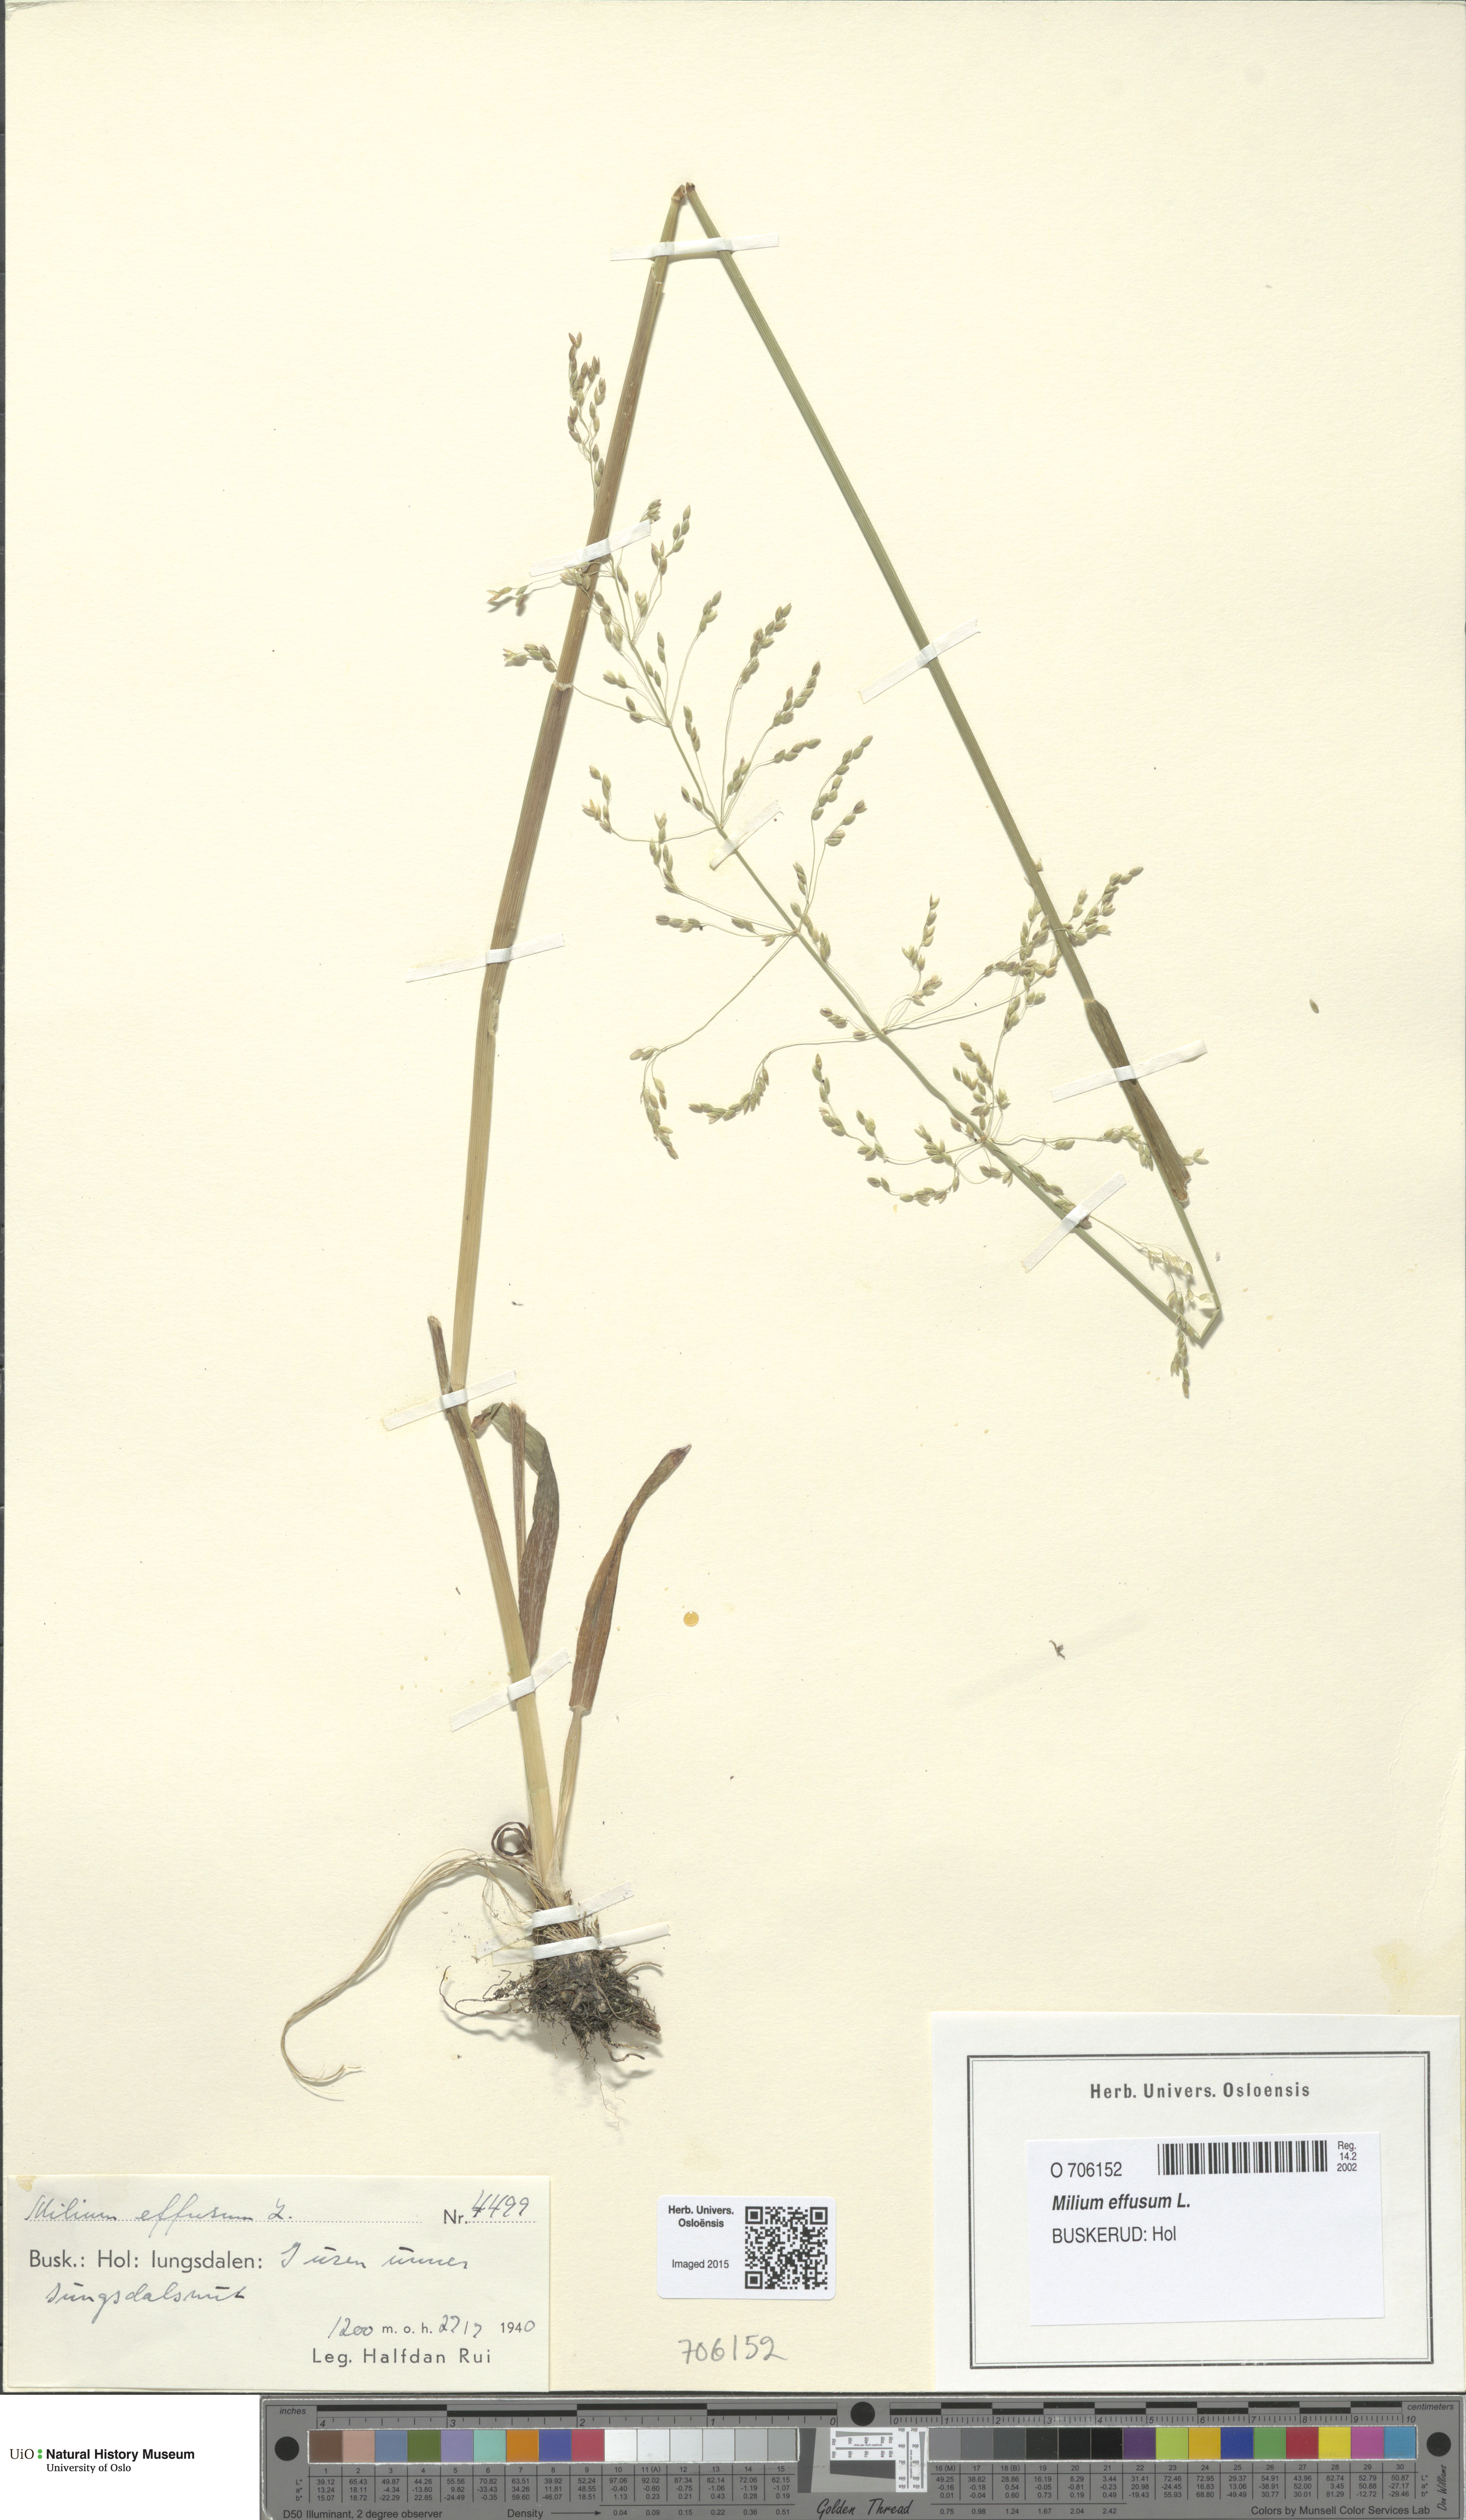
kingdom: Plantae
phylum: Tracheophyta
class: Liliopsida
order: Poales
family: Poaceae
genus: Milium
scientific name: Milium effusum
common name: Wood millet
